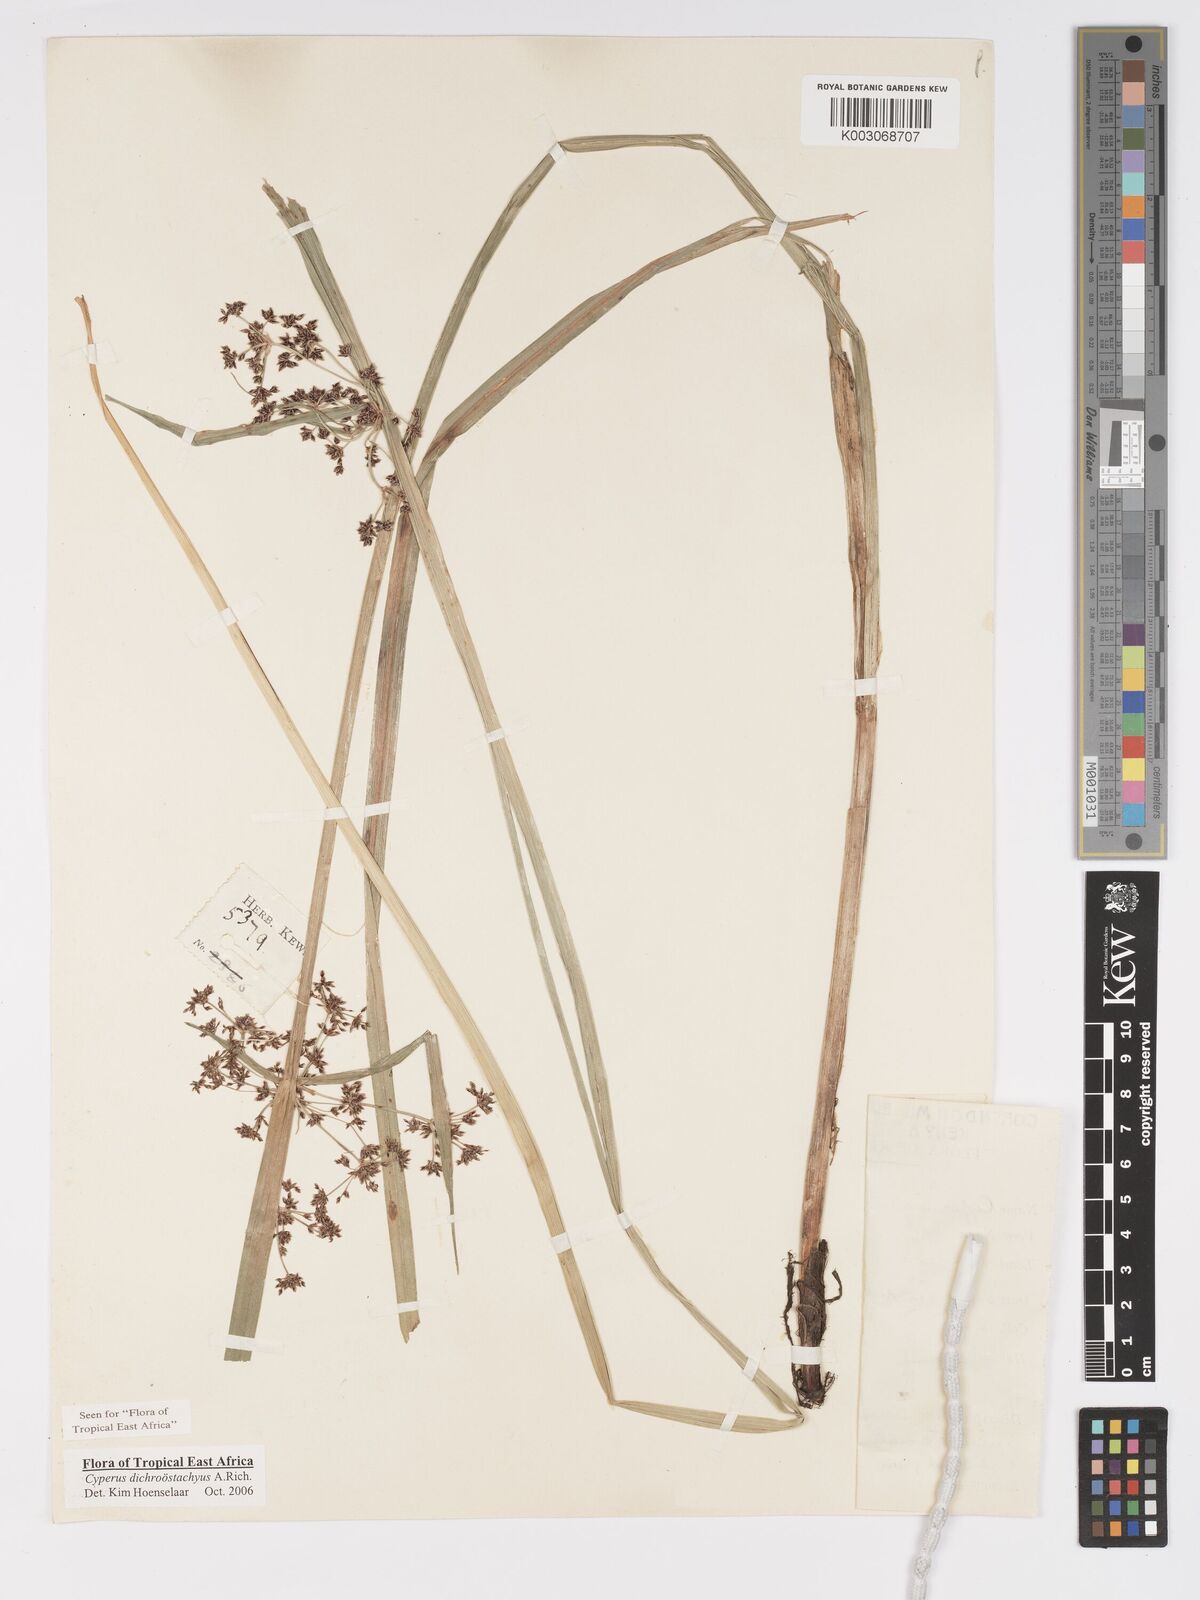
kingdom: Plantae
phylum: Tracheophyta
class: Liliopsida
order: Poales
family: Cyperaceae
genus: Cyperus
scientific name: Cyperus dichrostachyus
